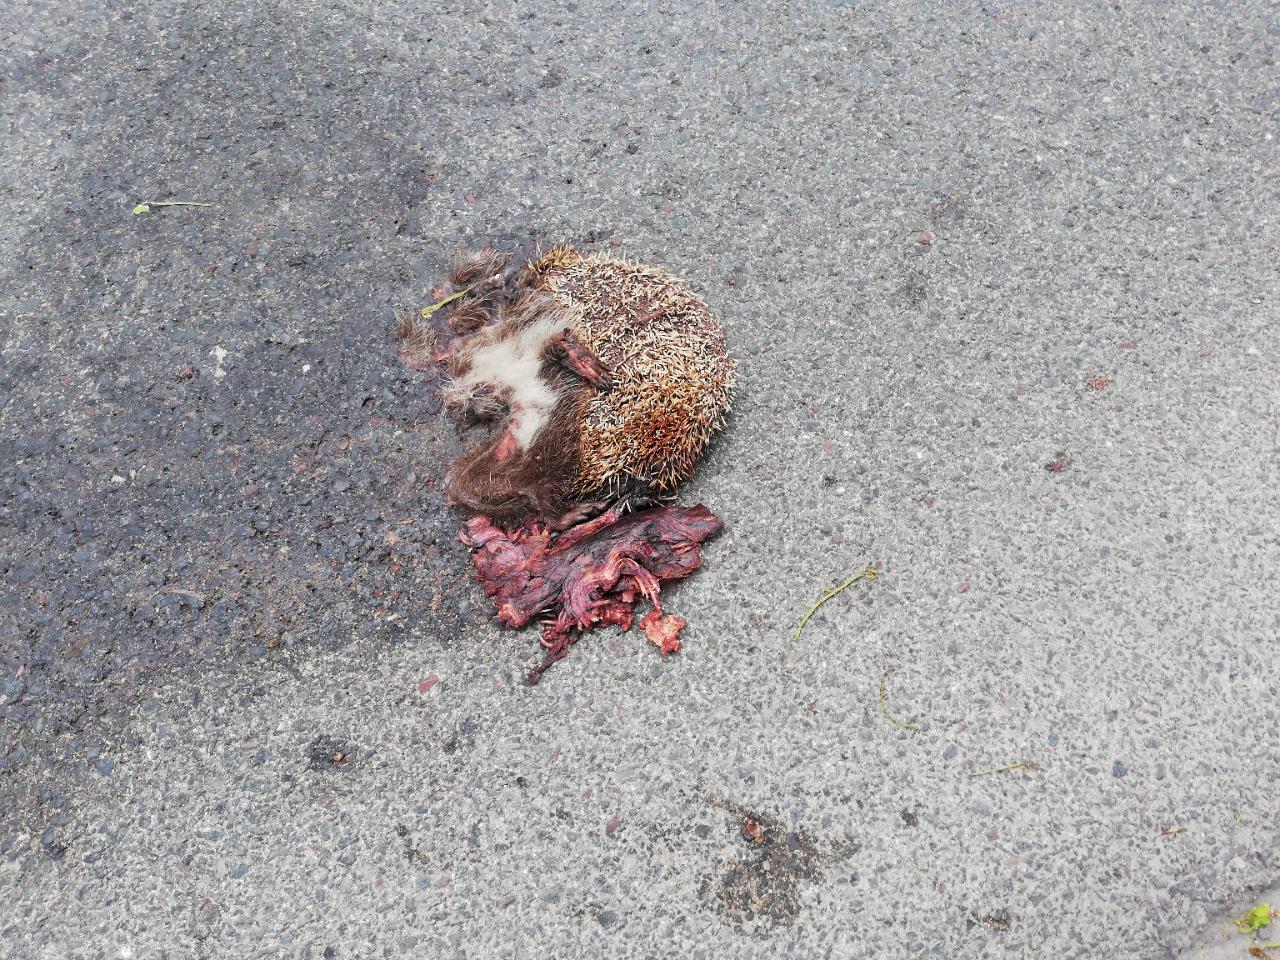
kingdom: Animalia
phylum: Chordata
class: Mammalia
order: Erinaceomorpha
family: Erinaceidae
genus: Erinaceus
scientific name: Erinaceus
